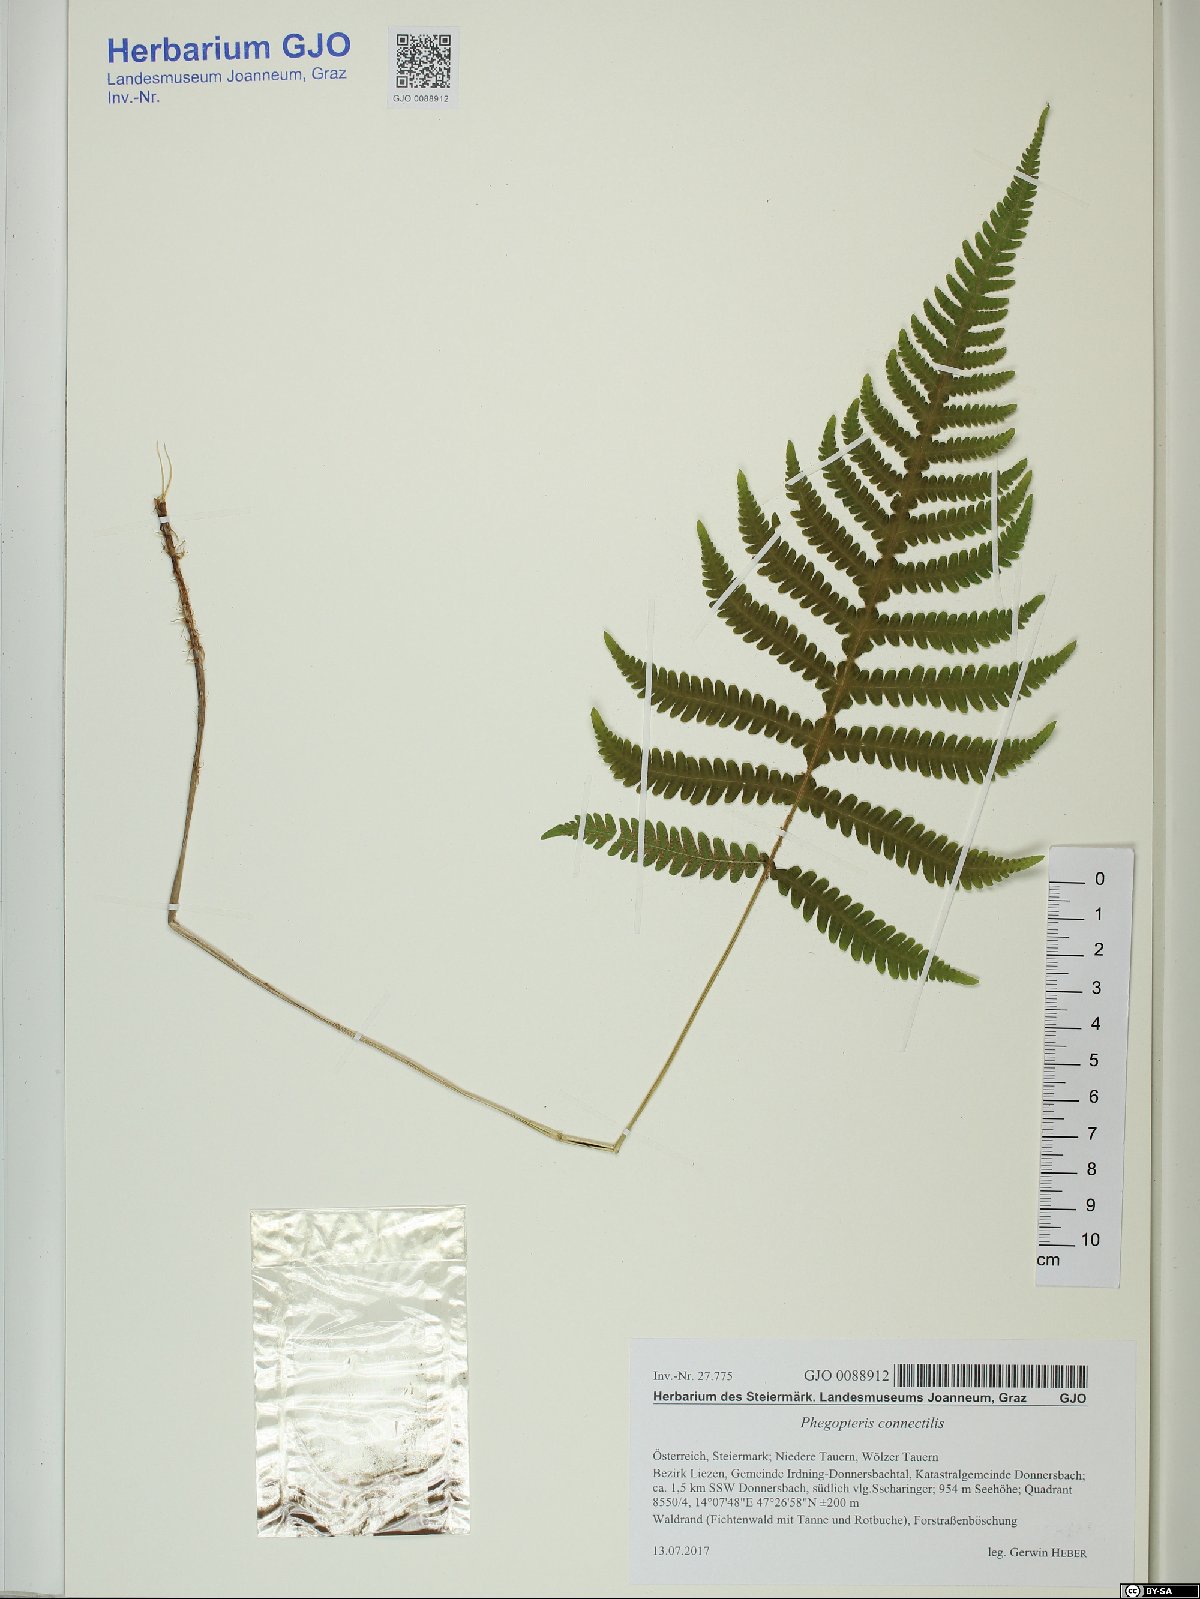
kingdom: Plantae
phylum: Tracheophyta
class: Polypodiopsida
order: Polypodiales
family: Thelypteridaceae
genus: Phegopteris
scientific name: Phegopteris connectilis
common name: Beech fern
